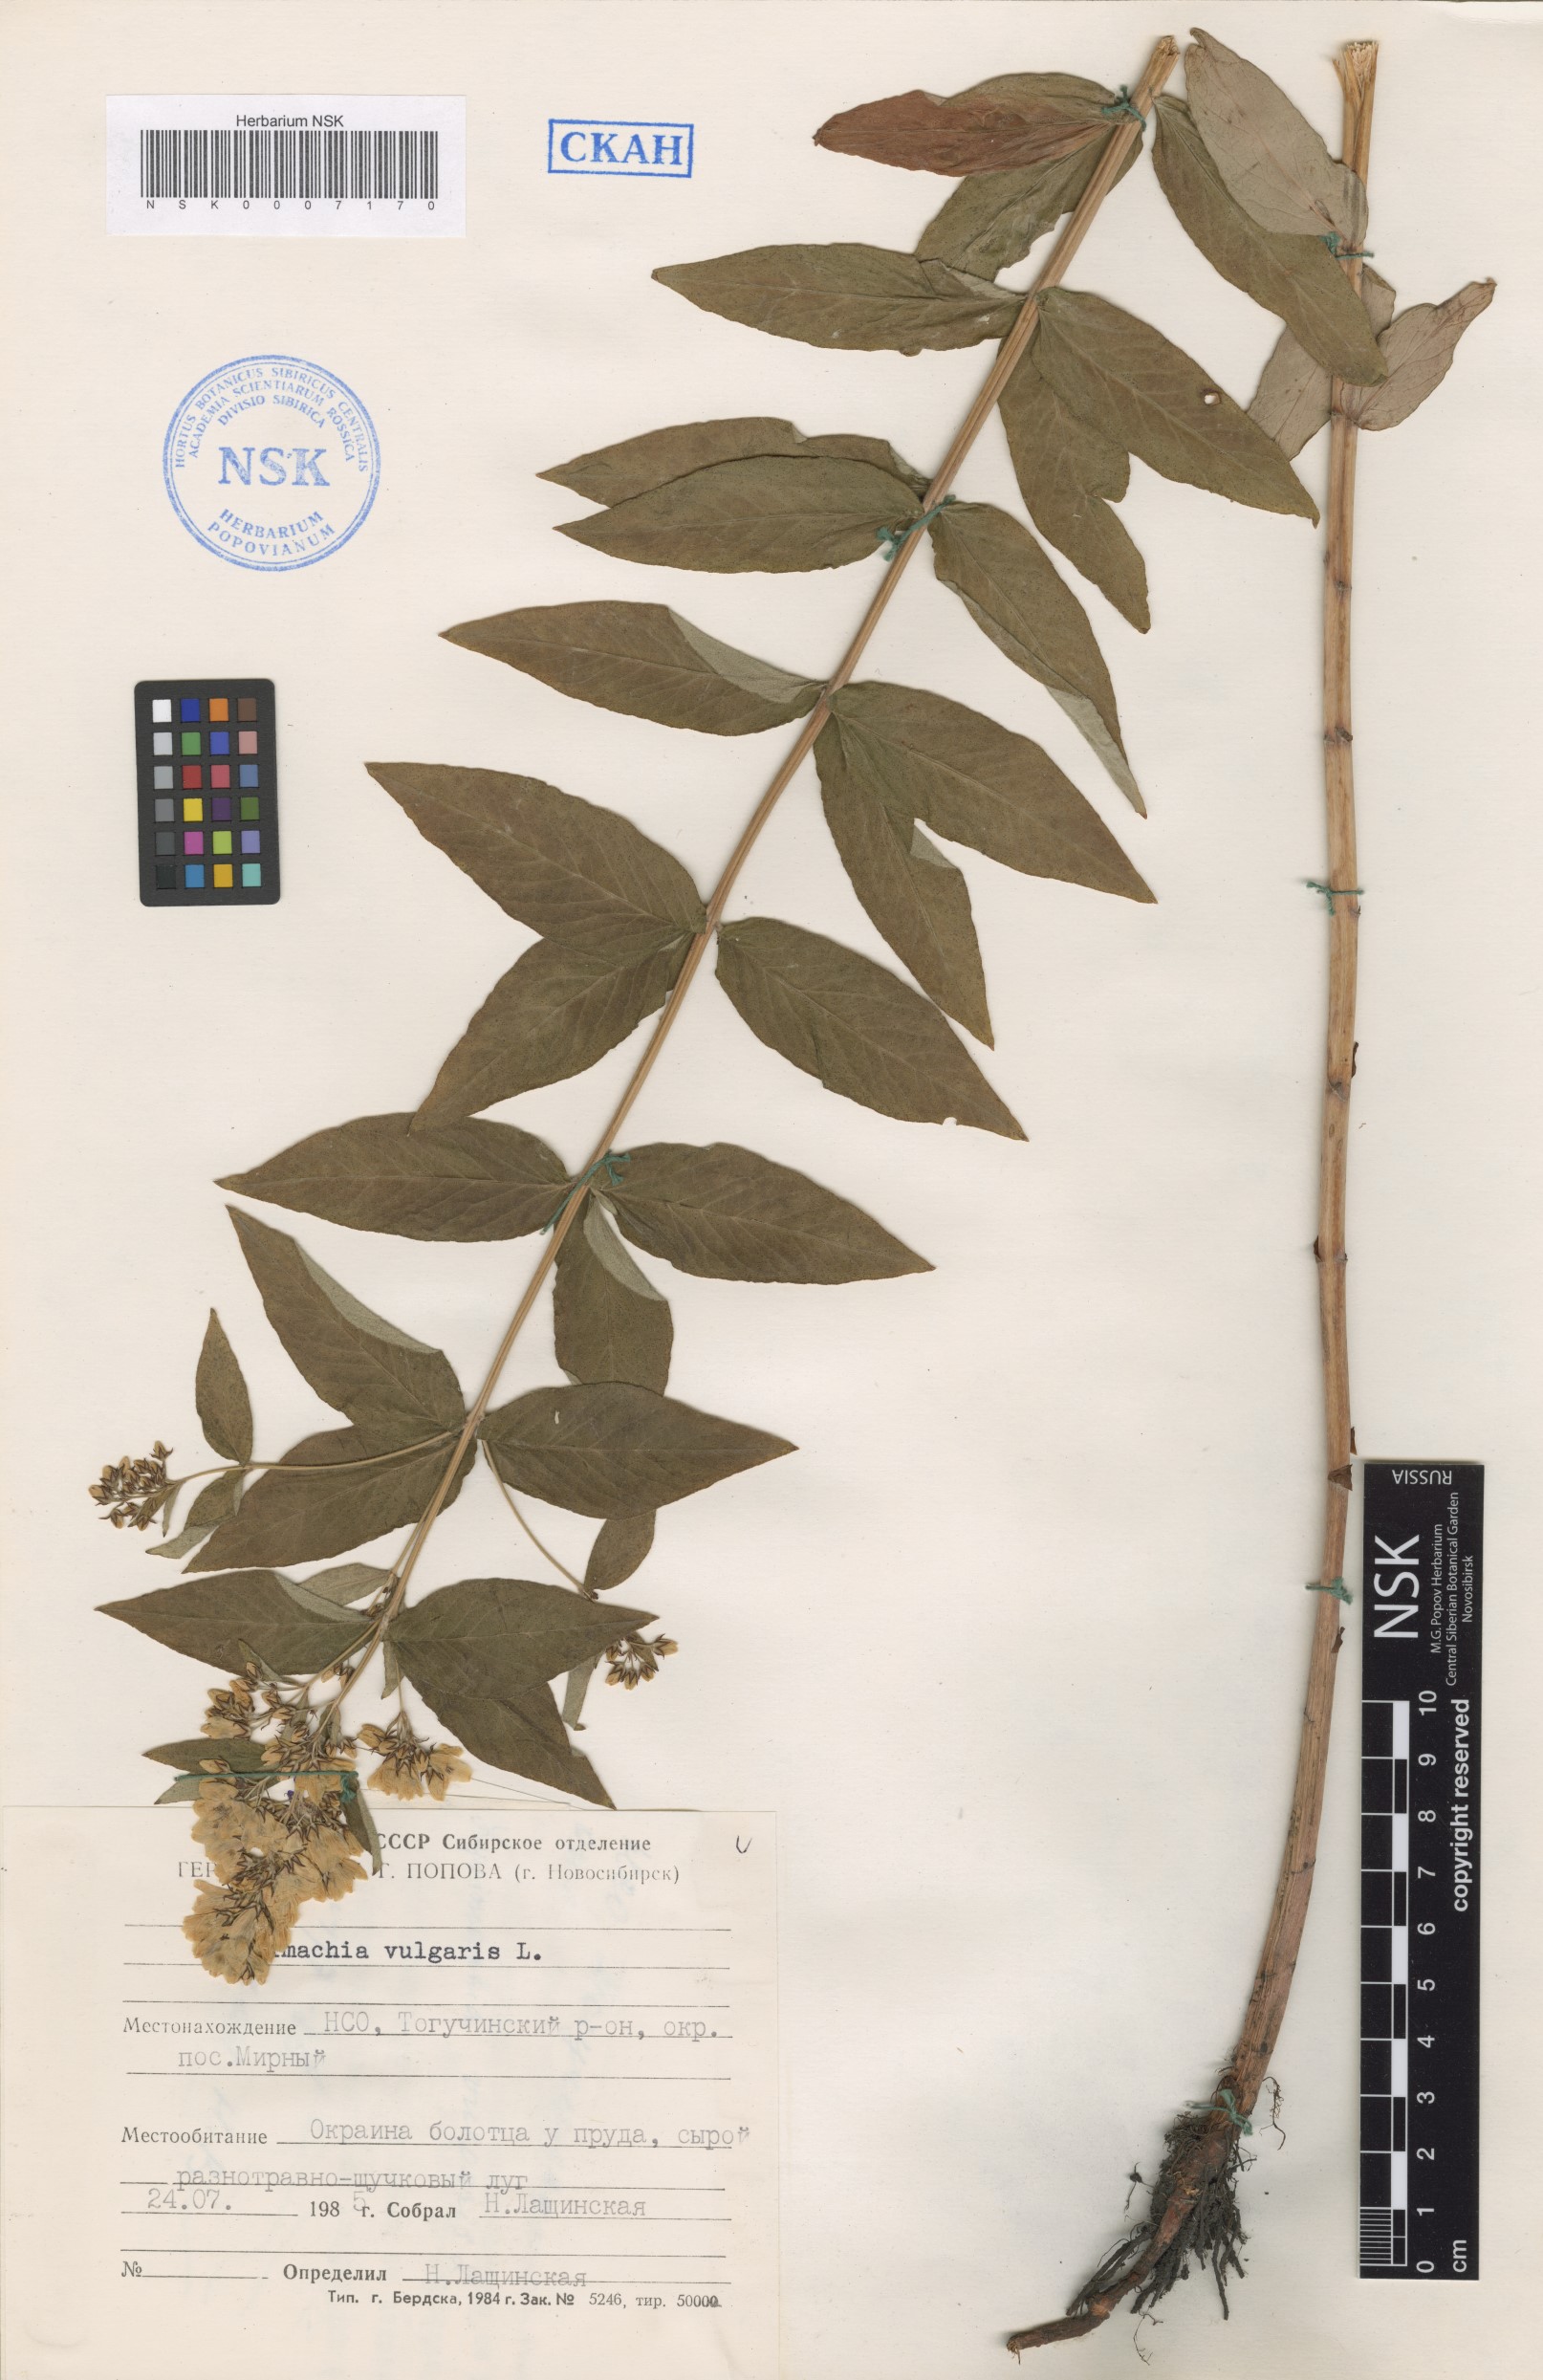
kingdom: Plantae
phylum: Tracheophyta
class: Magnoliopsida
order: Ericales
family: Primulaceae
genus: Lysimachia
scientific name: Lysimachia vulgaris
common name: Yellow loosestrife
